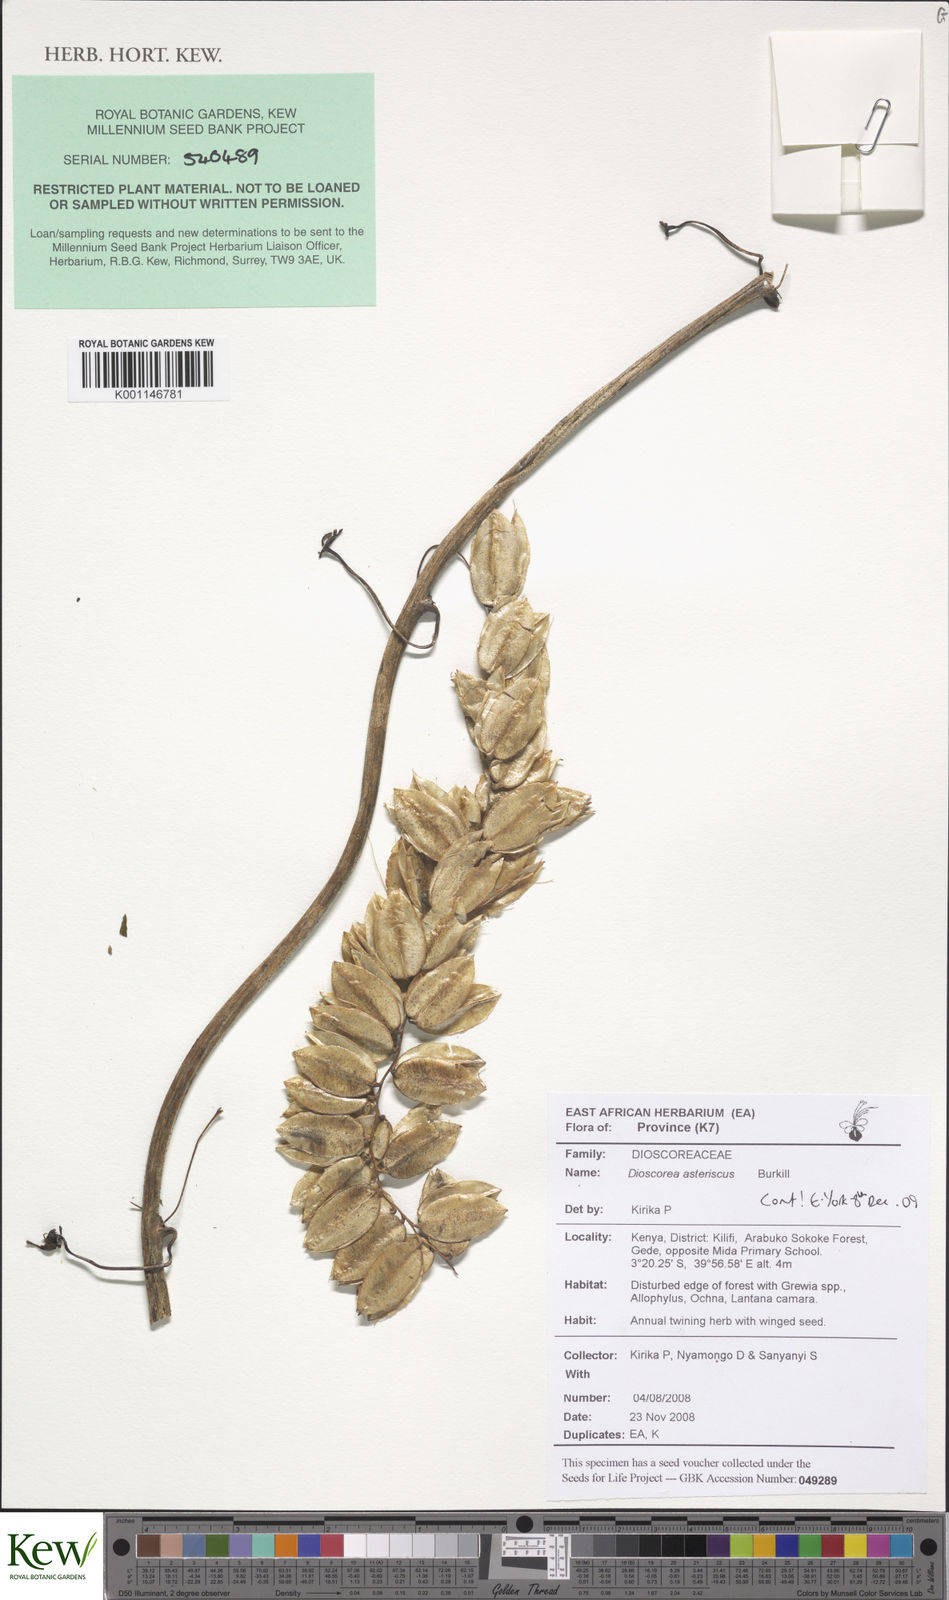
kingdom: Plantae
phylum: Tracheophyta
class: Liliopsida
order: Dioscoreales
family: Dioscoreaceae
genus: Dioscorea
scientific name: Dioscorea asteriscus
